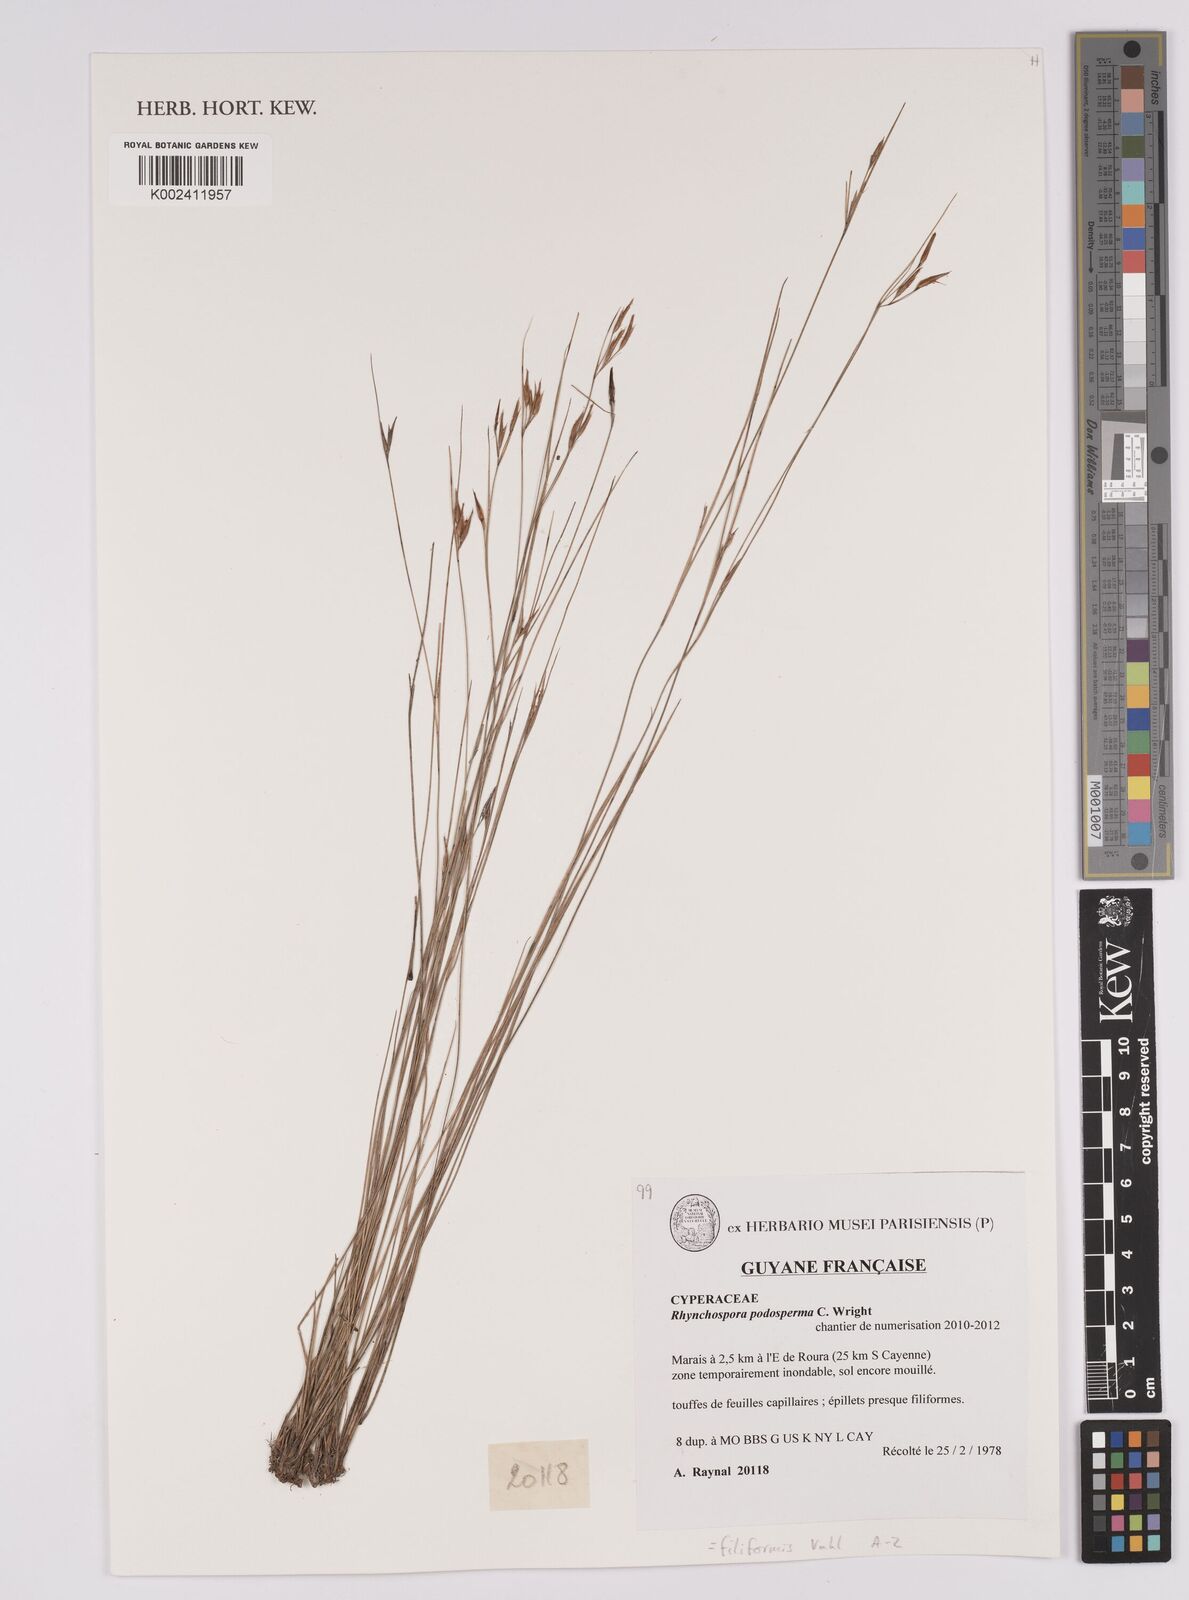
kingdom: Plantae
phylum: Tracheophyta
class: Liliopsida
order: Poales
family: Cyperaceae
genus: Rhynchospora
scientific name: Rhynchospora filiformis
